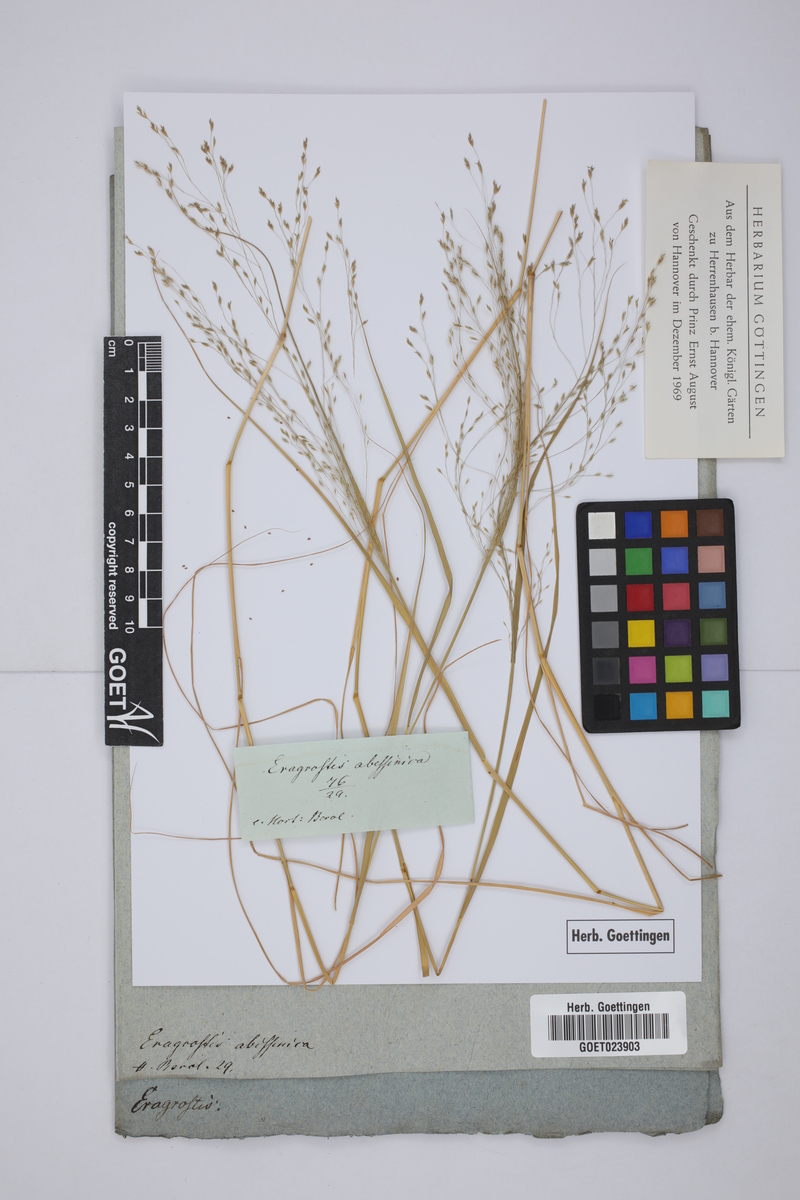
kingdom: Plantae
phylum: Tracheophyta
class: Liliopsida
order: Poales
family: Poaceae
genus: Eragrostis
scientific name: Eragrostis tef
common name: Teff
